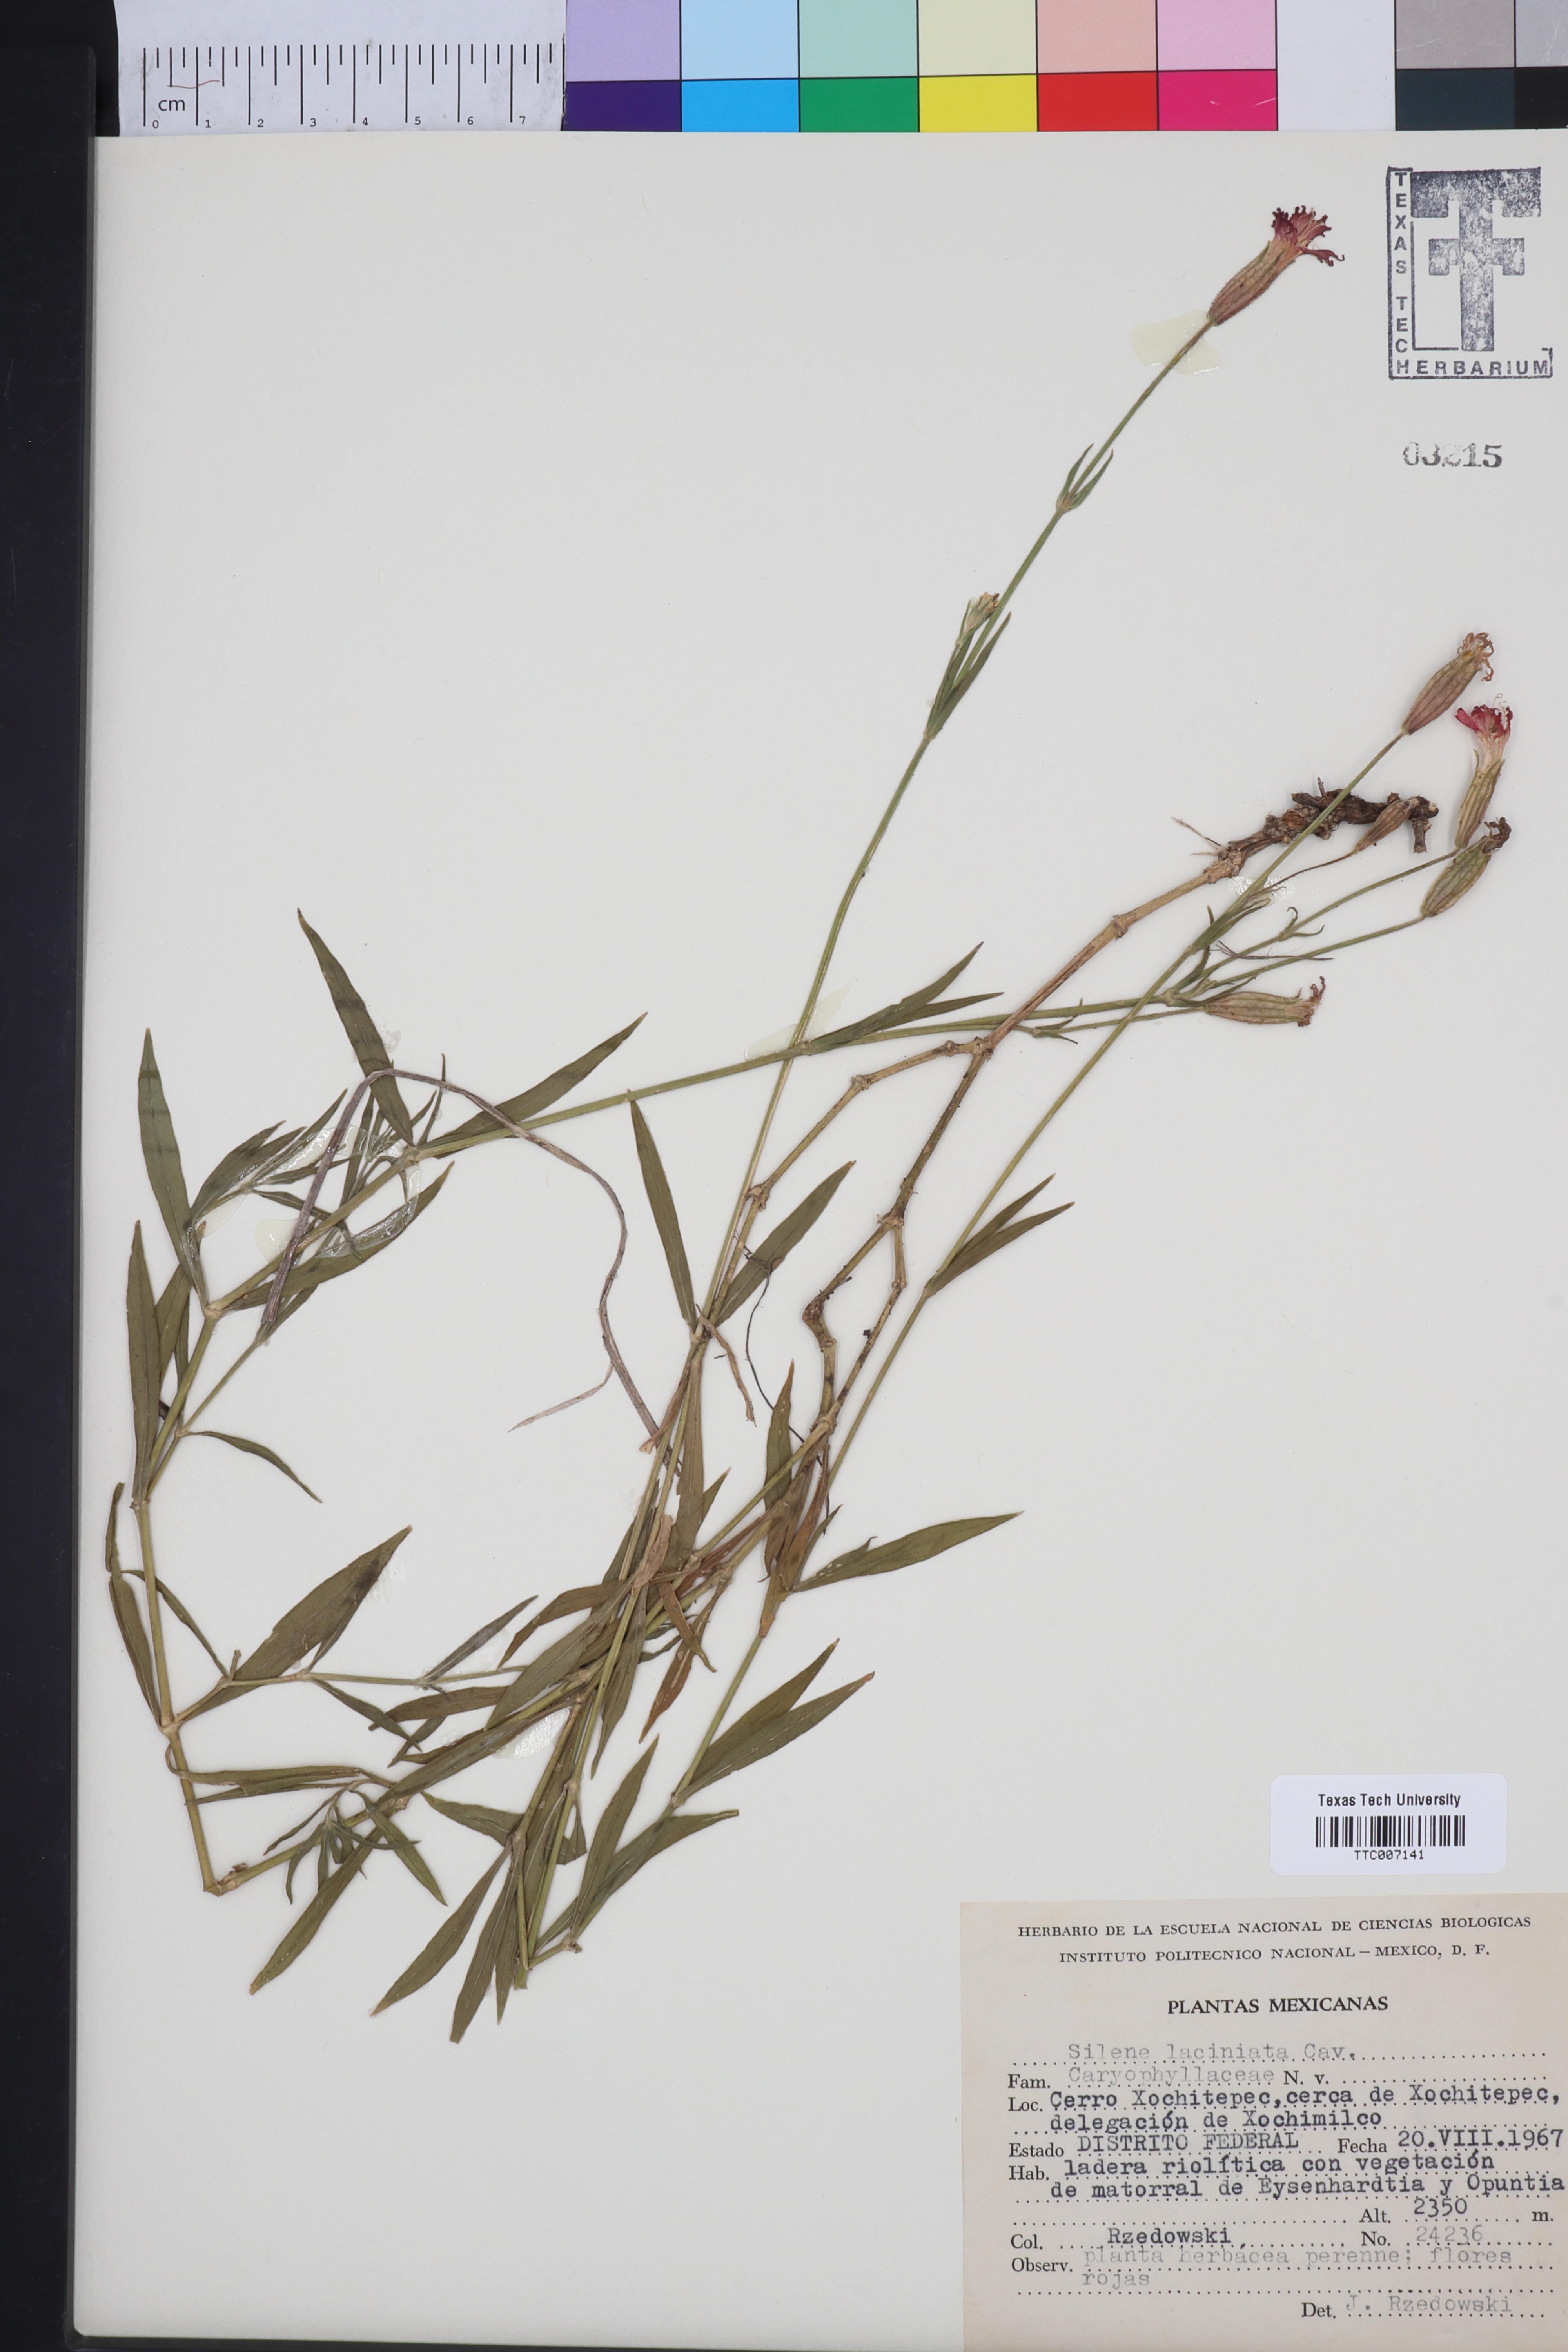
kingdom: Plantae
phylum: Tracheophyta
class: Magnoliopsida
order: Caryophyllales
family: Caryophyllaceae
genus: Silene
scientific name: Silene laciniata
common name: Indian-pink
